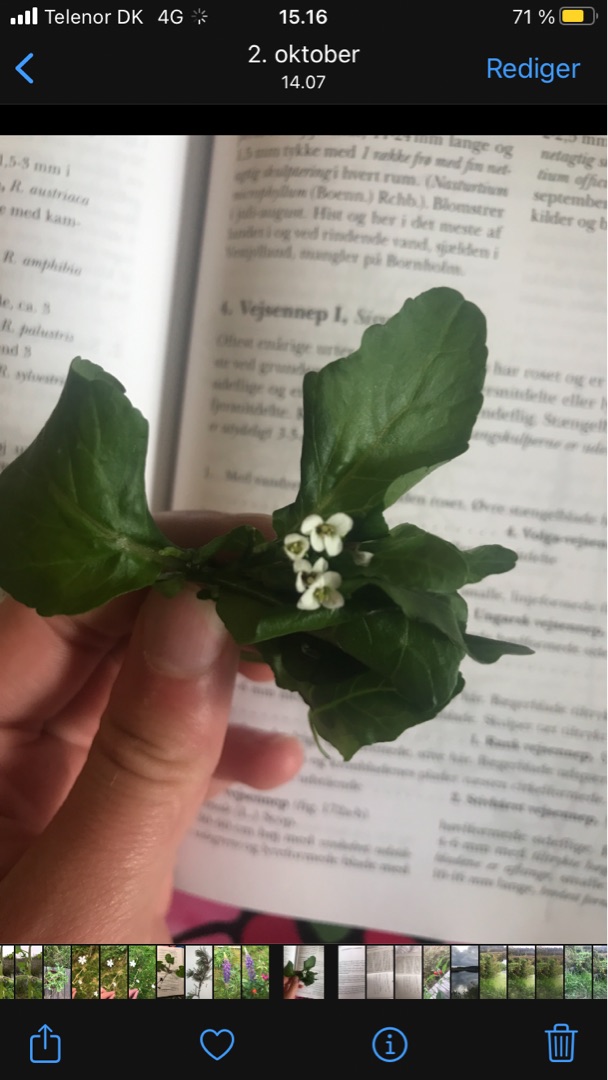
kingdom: Plantae
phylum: Tracheophyta
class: Magnoliopsida
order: Brassicales
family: Brassicaceae
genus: Nasturtium
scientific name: Nasturtium officinale
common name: Tykskulpet brøndkarse
